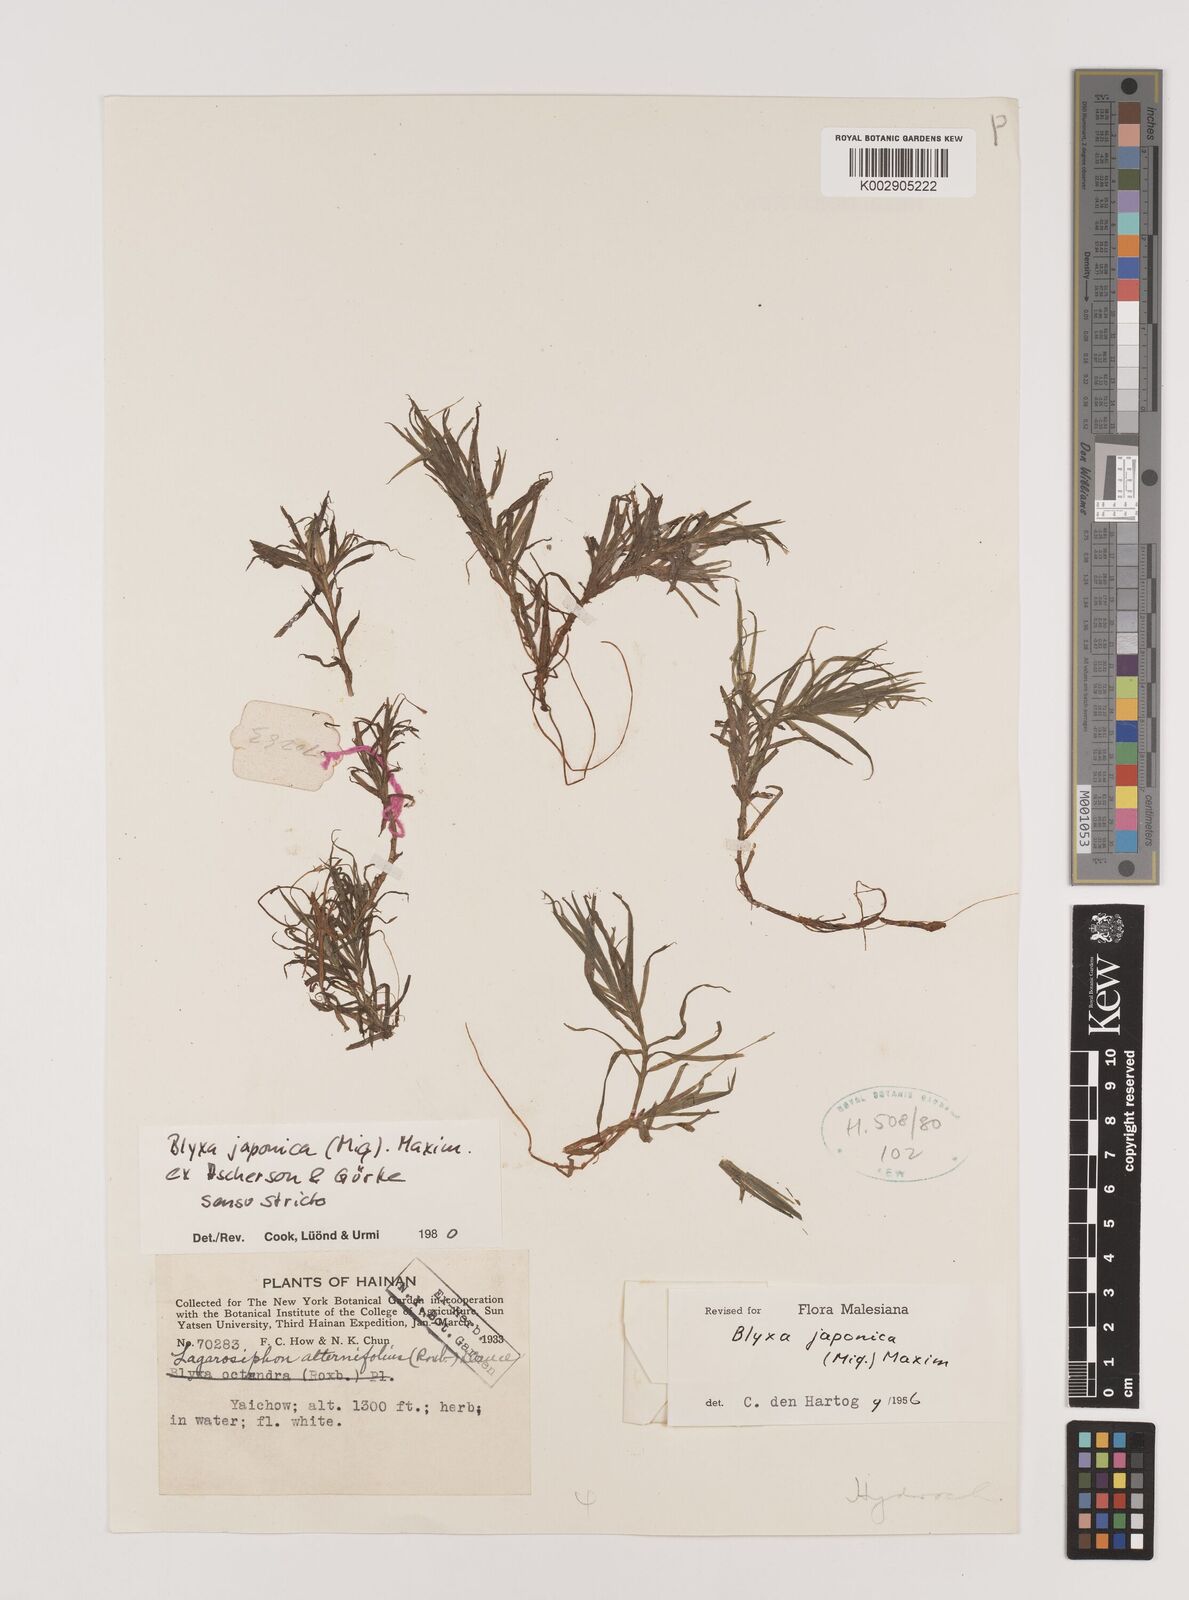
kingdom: Plantae
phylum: Tracheophyta
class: Liliopsida
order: Alismatales
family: Hydrocharitaceae
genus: Blyxa
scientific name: Blyxa japonica
